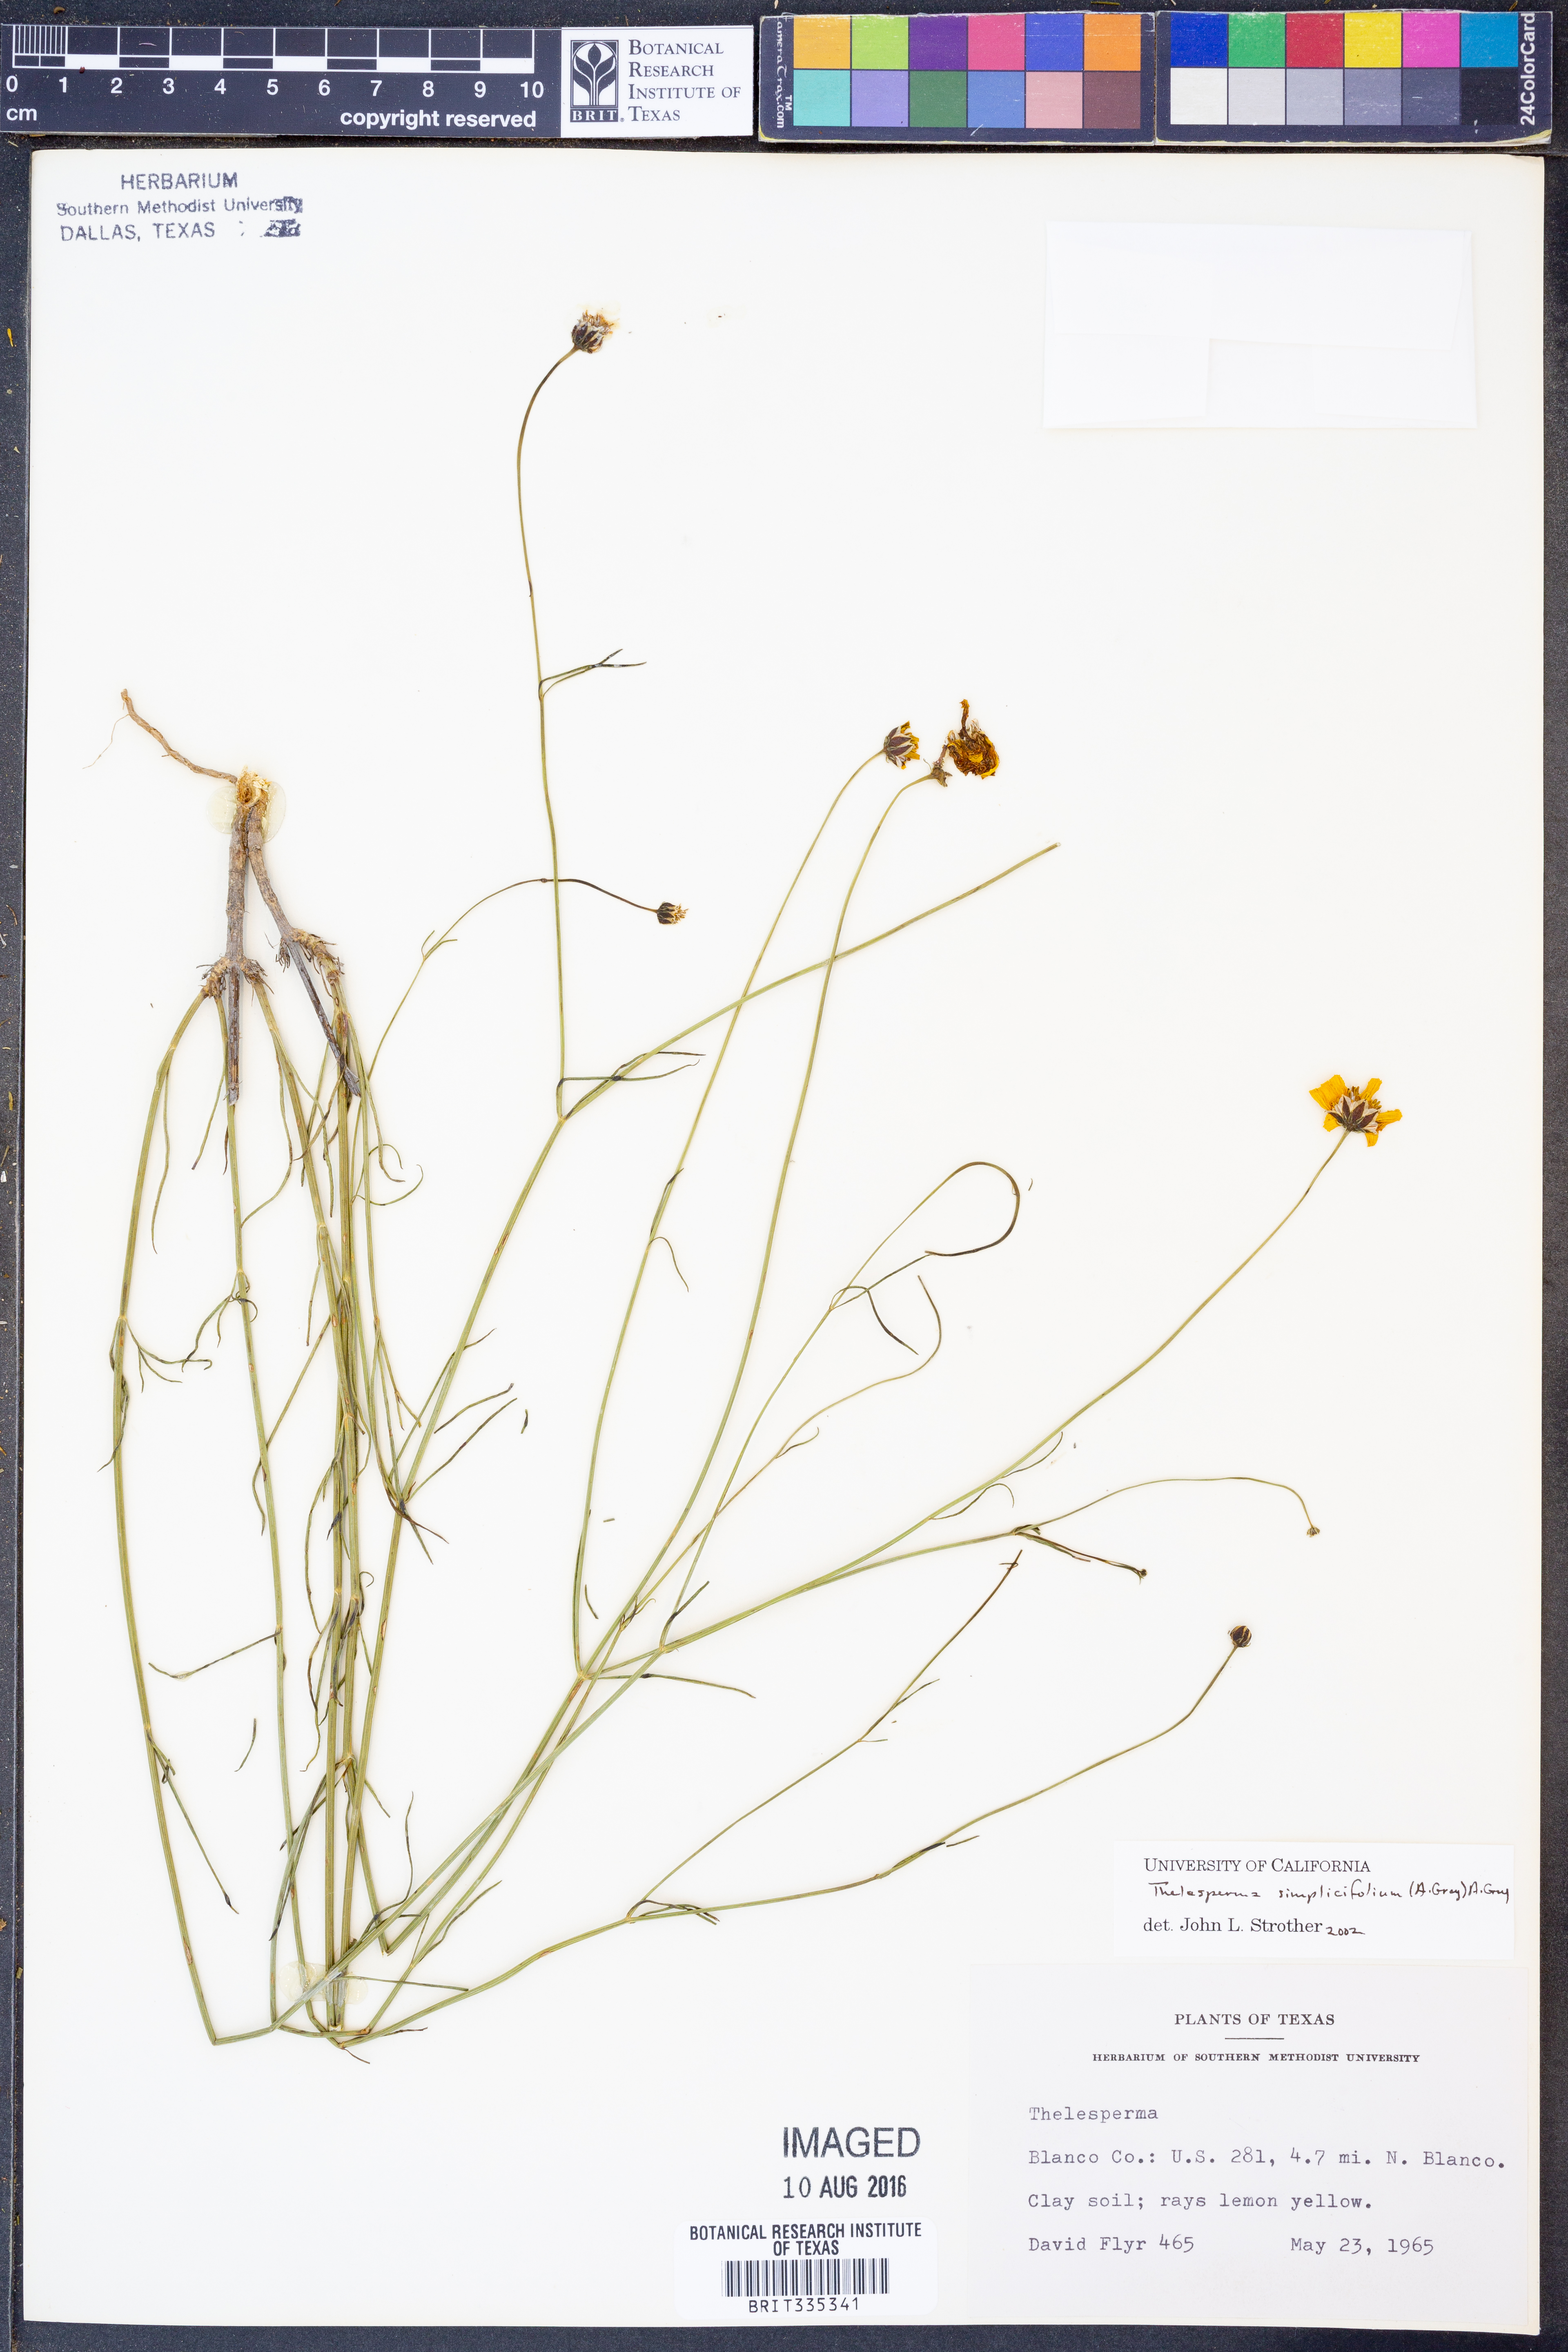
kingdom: Plantae
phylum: Tracheophyta
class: Magnoliopsida
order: Asterales
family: Asteraceae
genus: Thelesperma
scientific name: Thelesperma simplicifolium
